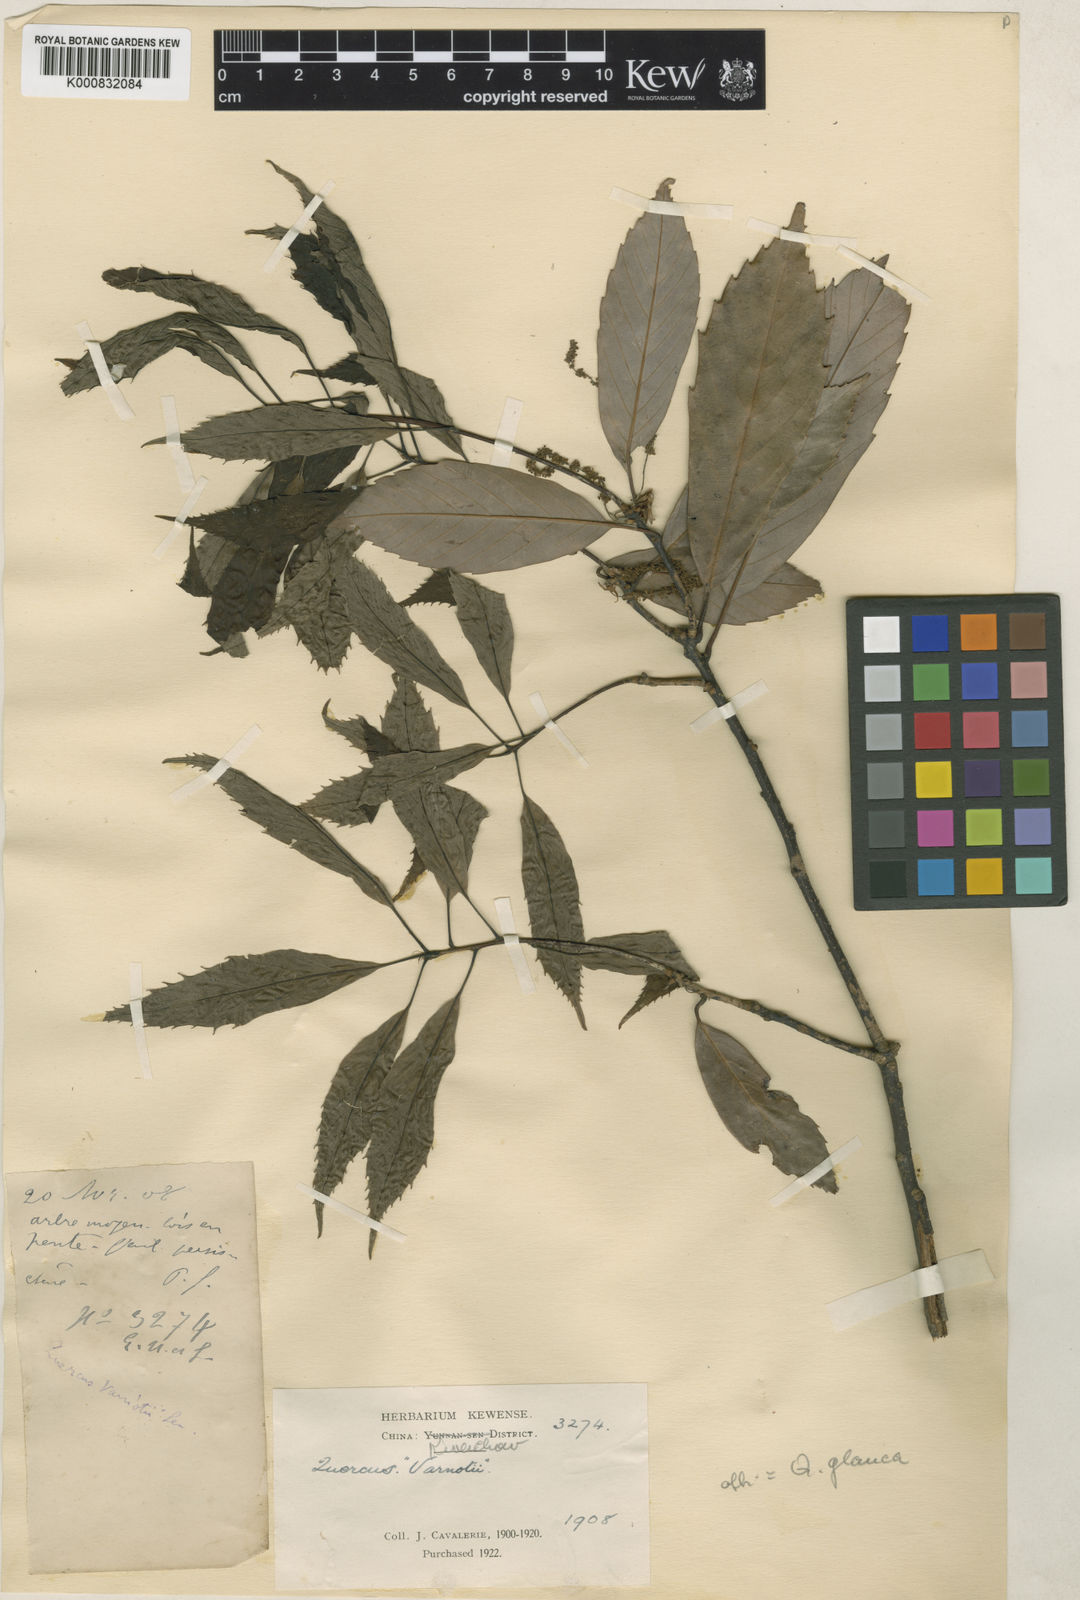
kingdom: Plantae
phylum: Tracheophyta
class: Magnoliopsida
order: Fagales
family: Fagaceae
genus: Quercus
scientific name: Quercus glauca
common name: Ring-cup oak
